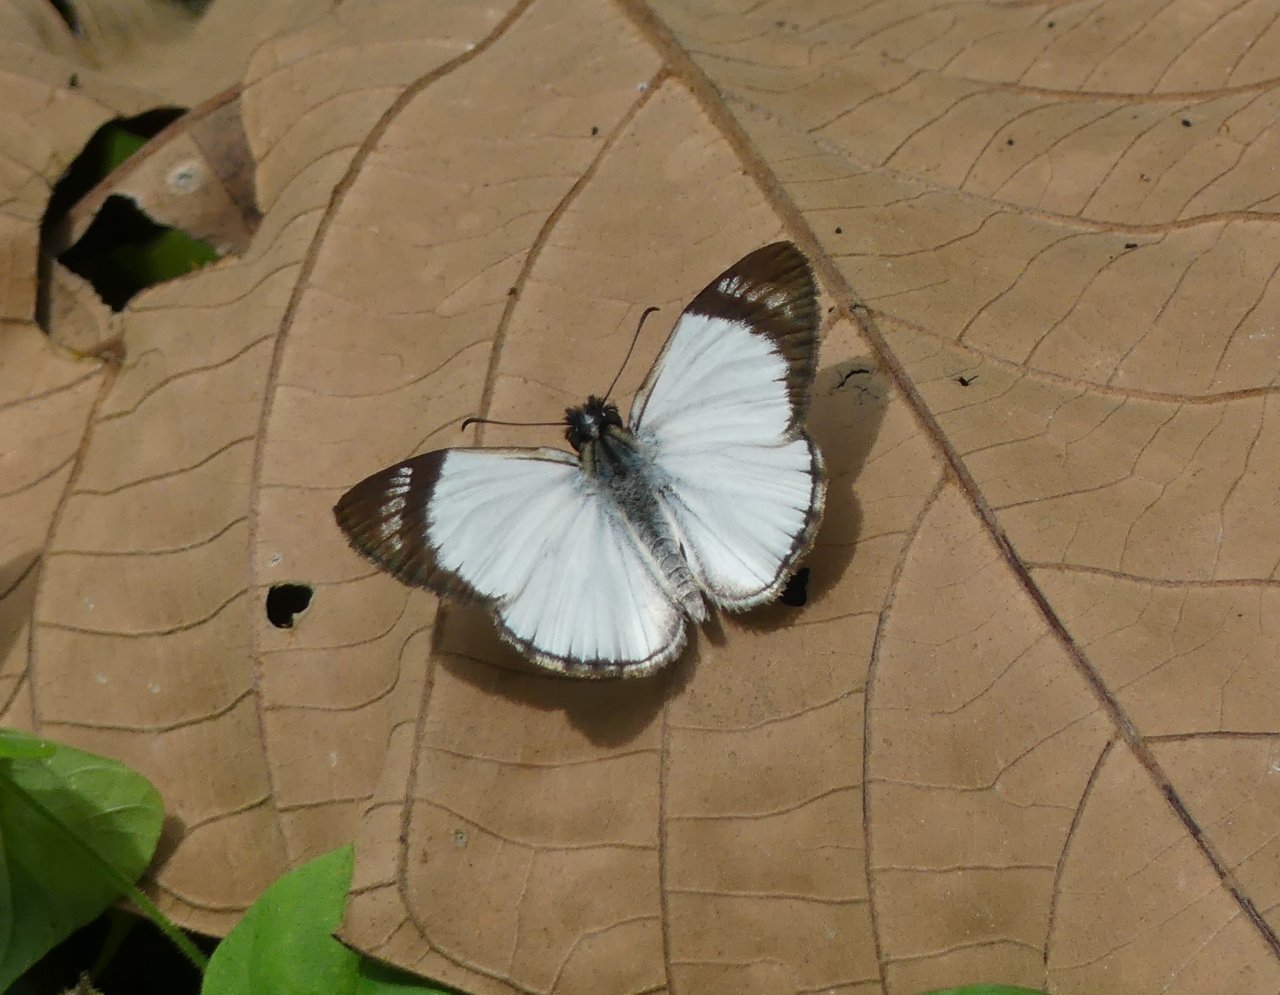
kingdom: Animalia
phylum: Arthropoda
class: Insecta
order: Lepidoptera
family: Hesperiidae
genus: Heliopetes
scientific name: Heliopetes alana
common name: Alana White-Skipper
